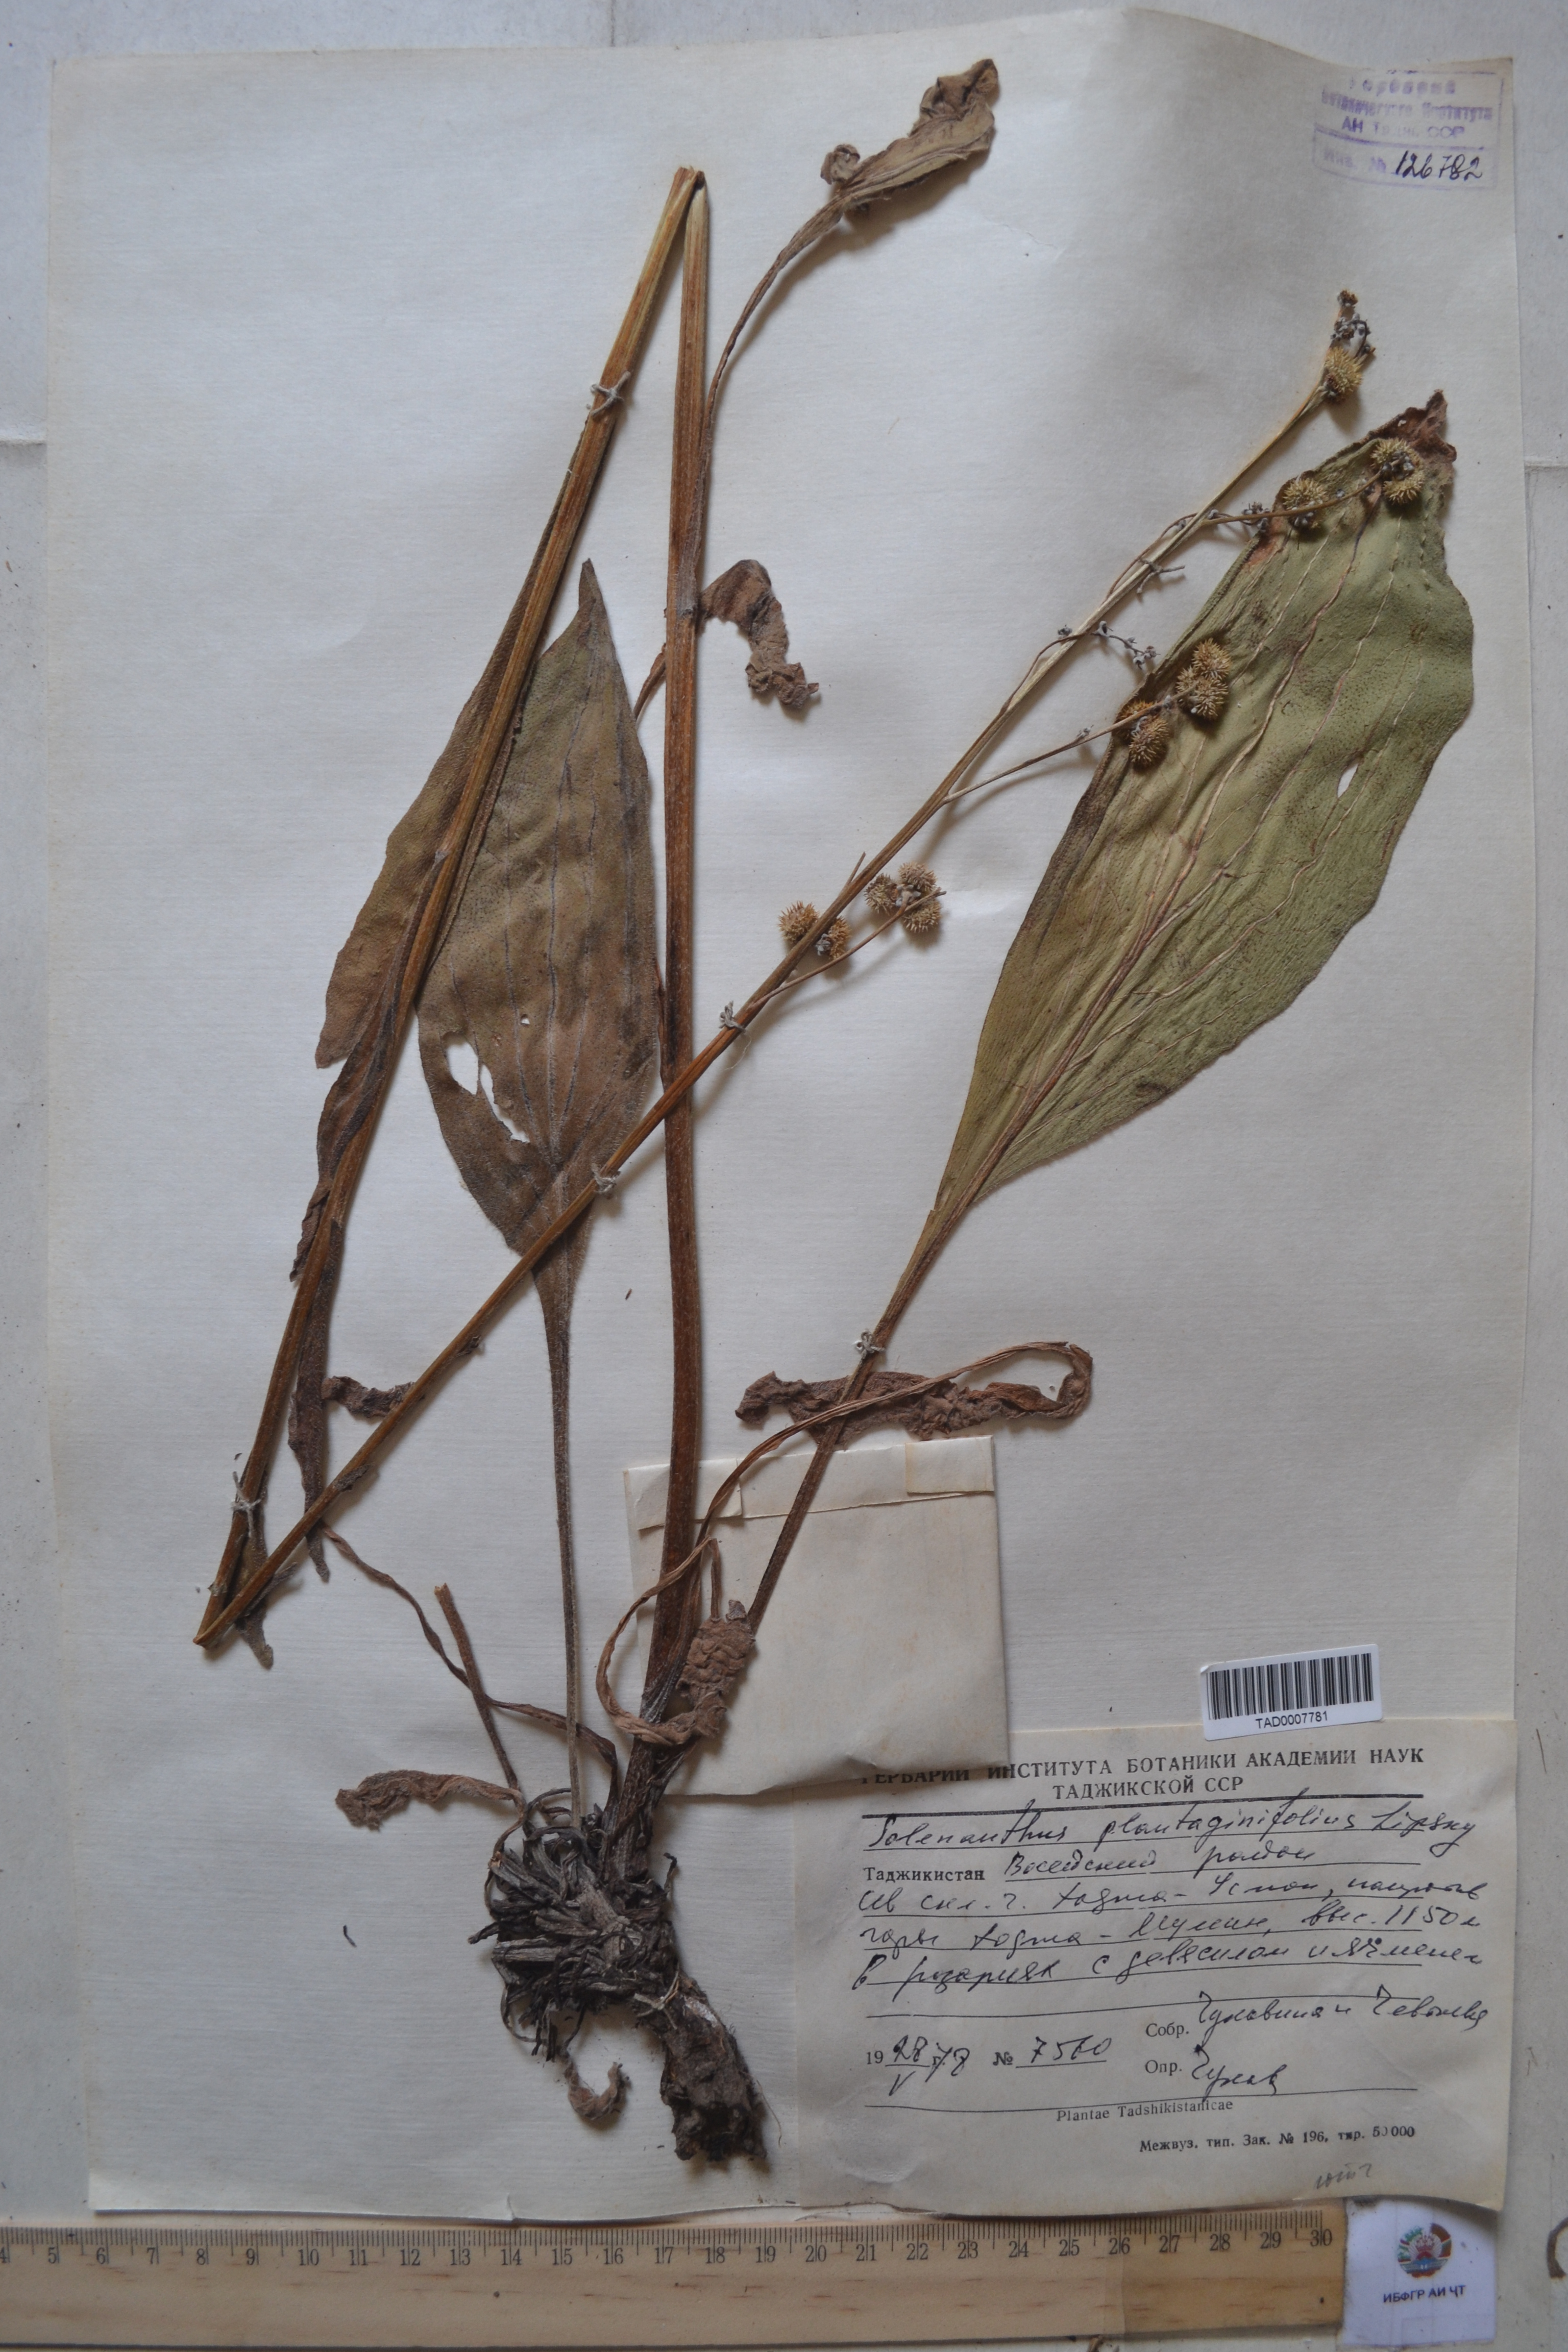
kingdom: Plantae
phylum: Tracheophyta
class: Magnoliopsida
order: Boraginales
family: Boraginaceae
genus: Solenanthus
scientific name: Solenanthus plantaginifolius
